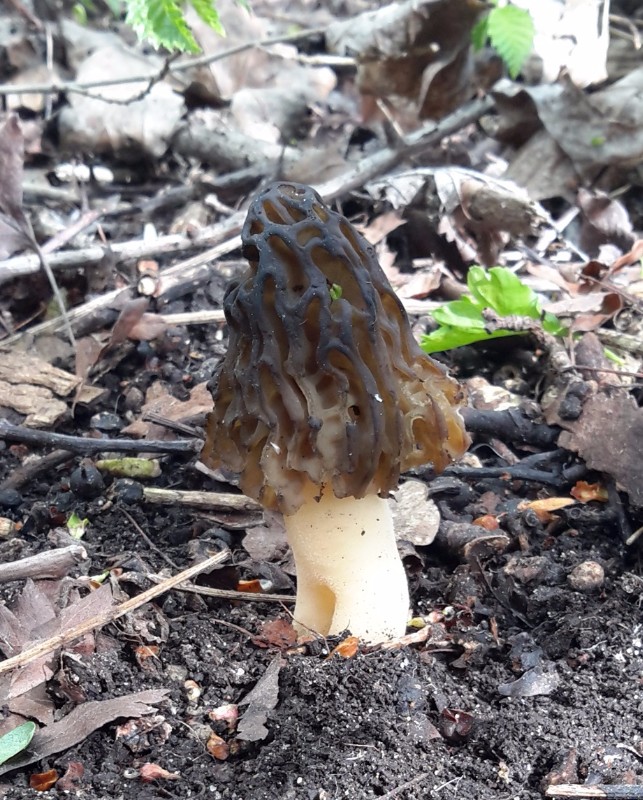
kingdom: Fungi
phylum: Ascomycota
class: Pezizomycetes
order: Pezizales
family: Morchellaceae
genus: Morchella
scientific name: Morchella semilibera
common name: hætte-morkel
